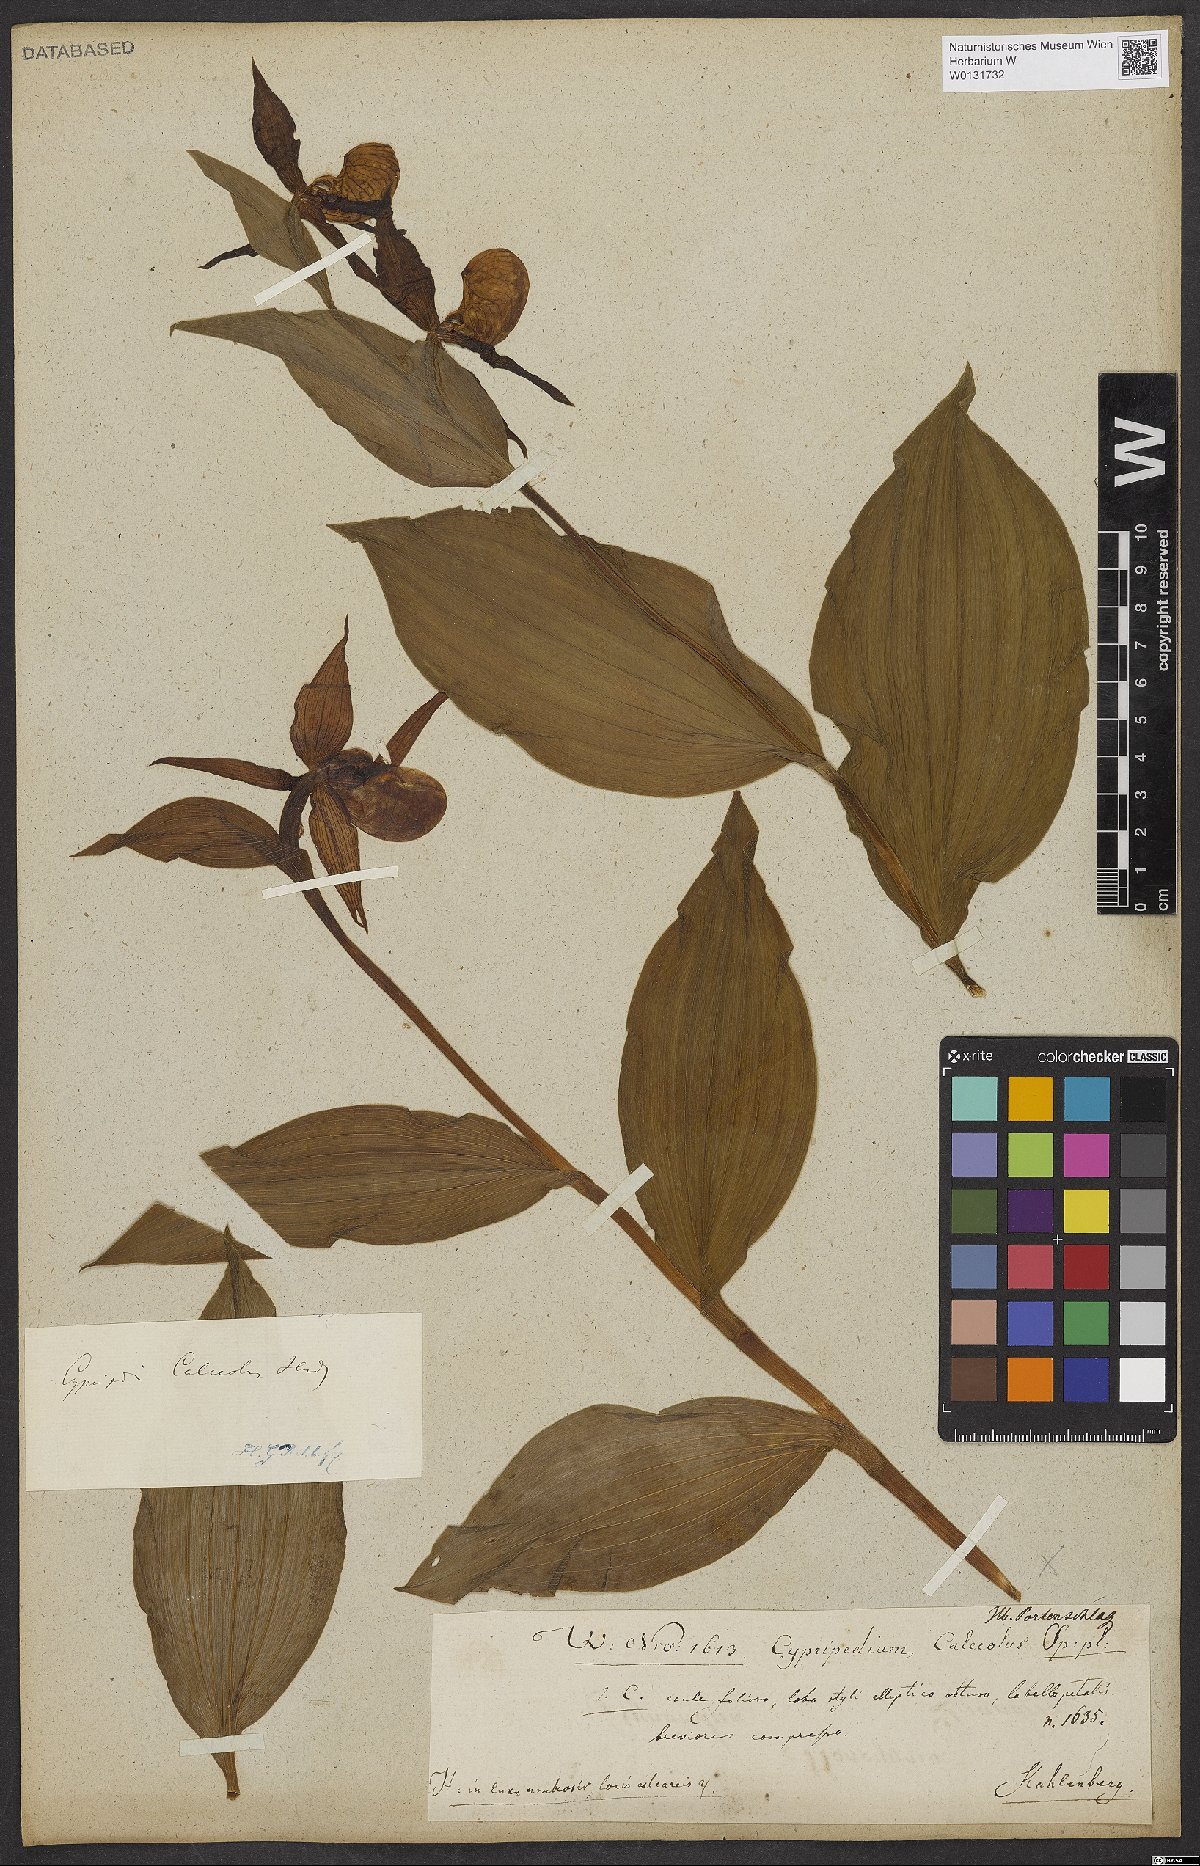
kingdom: Plantae
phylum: Tracheophyta
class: Liliopsida
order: Asparagales
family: Orchidaceae
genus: Cypripedium
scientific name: Cypripedium calceolus
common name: Lady's-slipper
